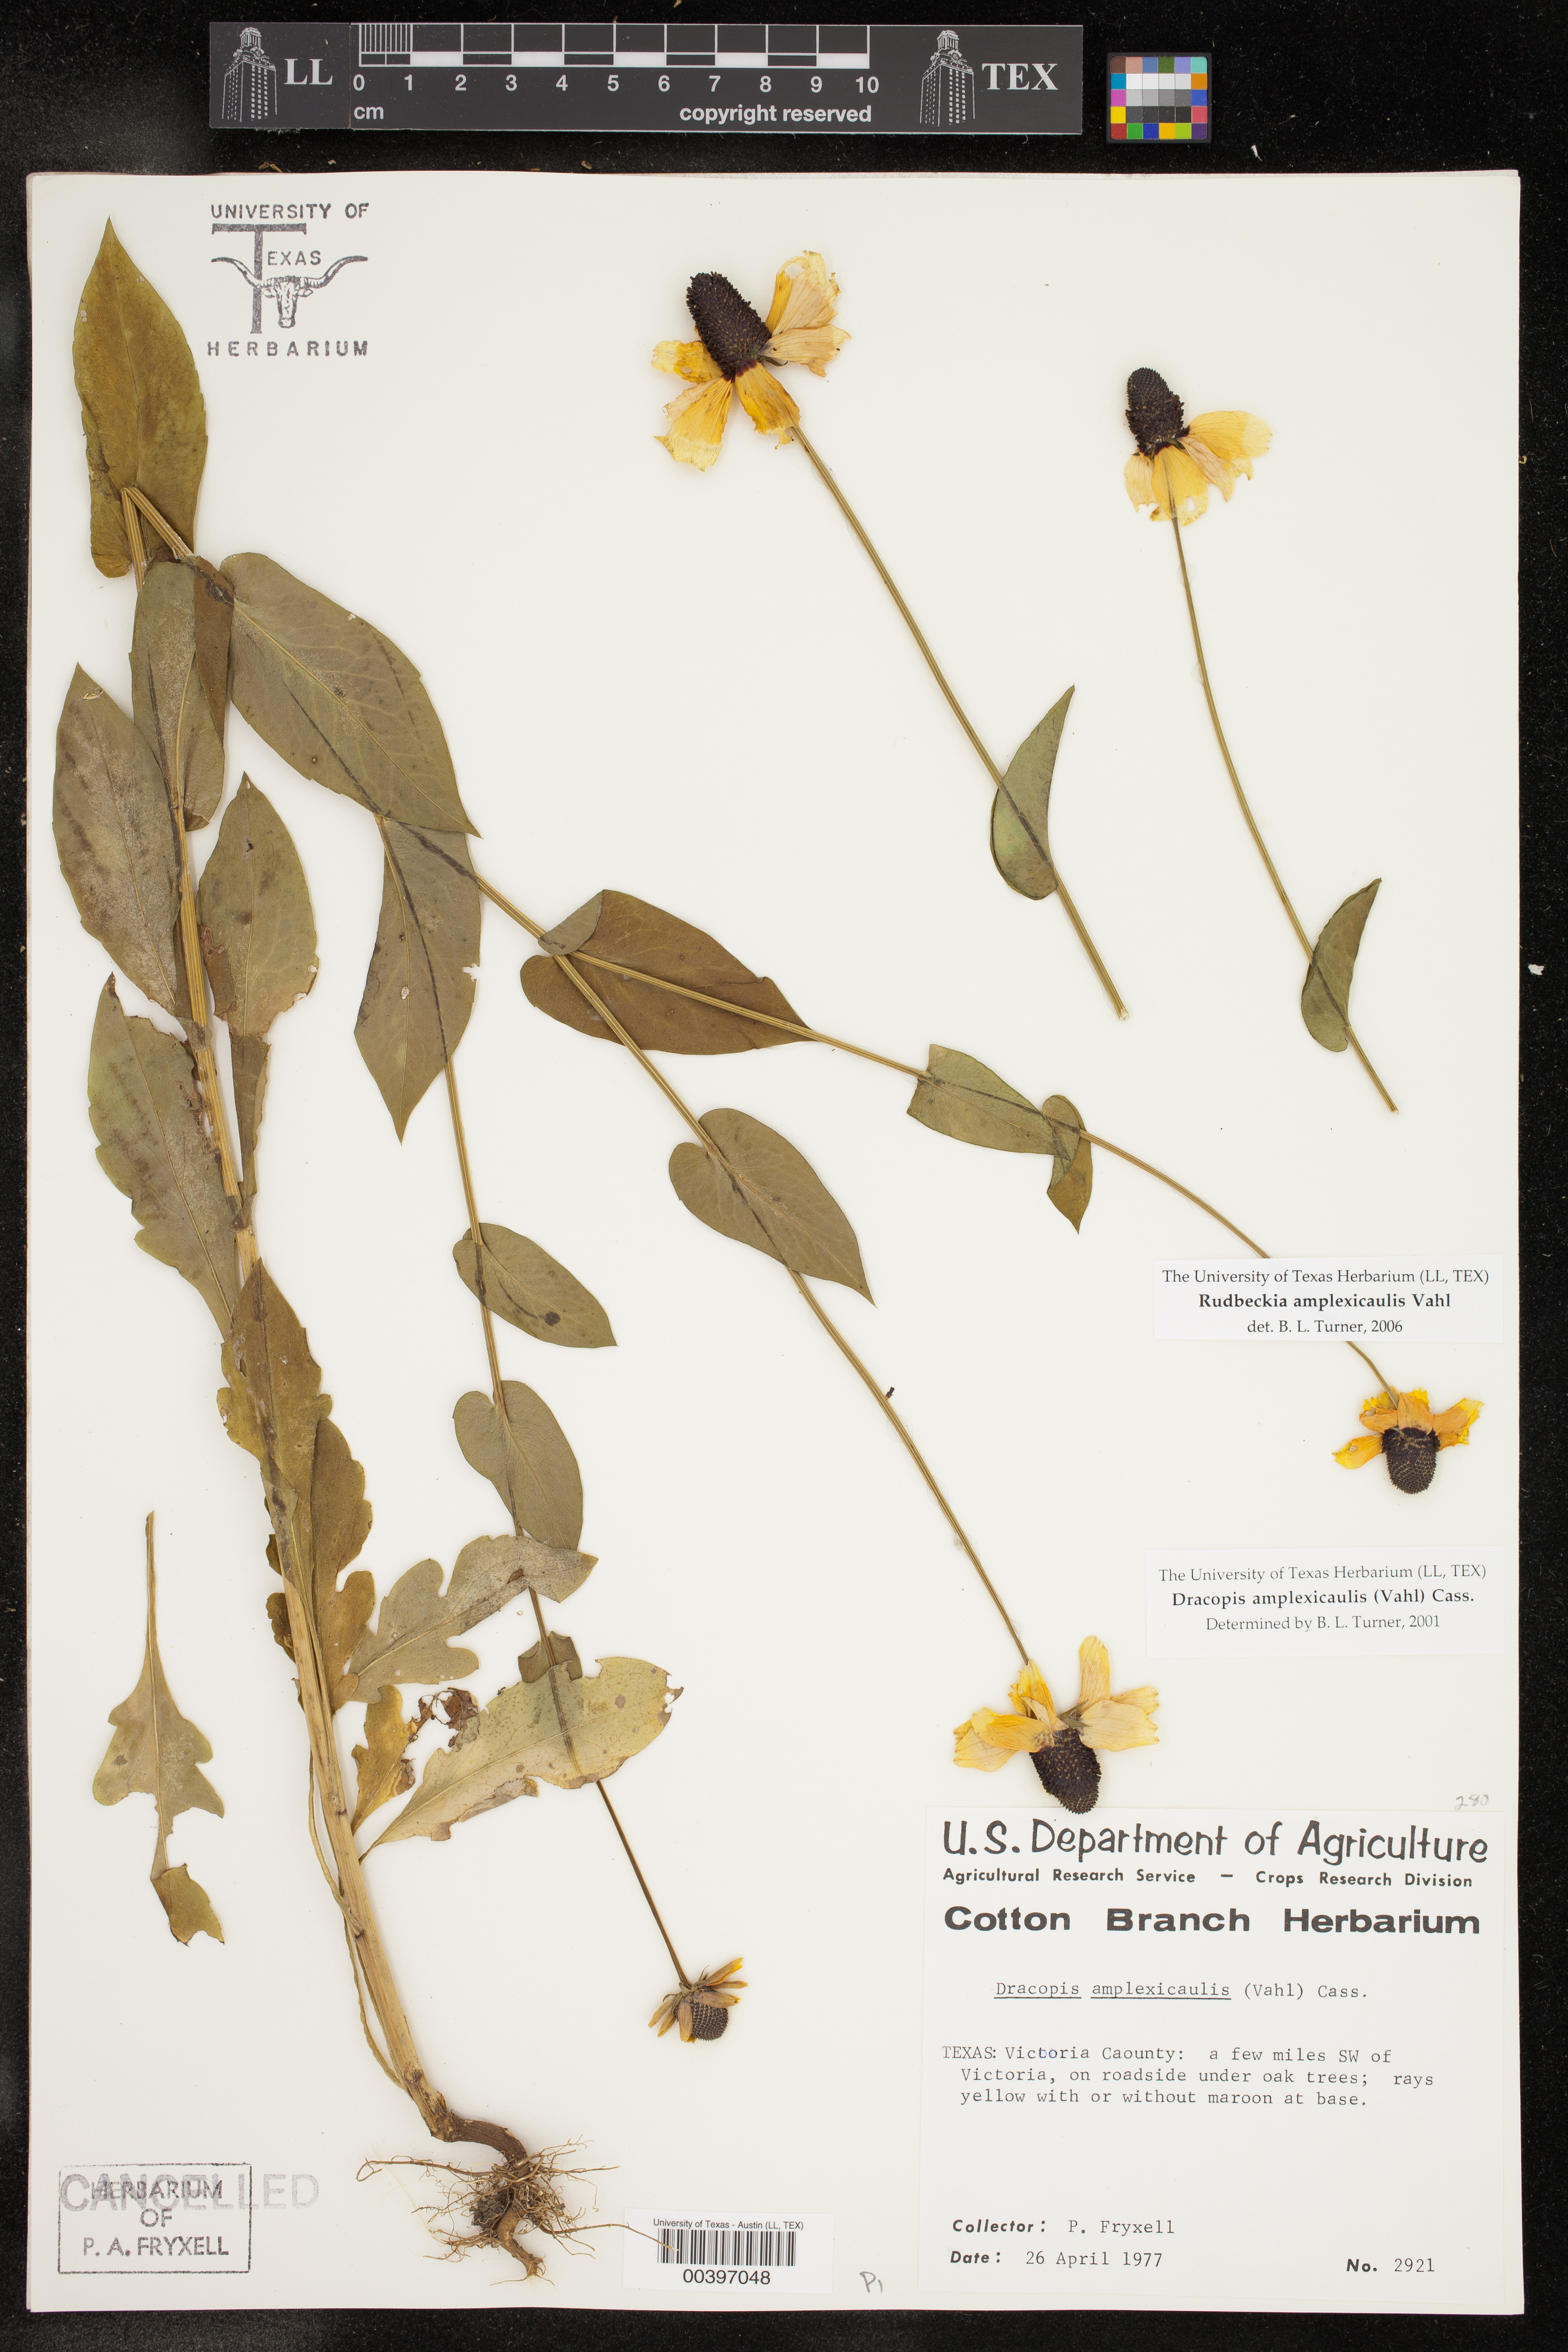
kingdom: Plantae
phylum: Tracheophyta
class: Magnoliopsida
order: Asterales
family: Asteraceae
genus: Rudbeckia
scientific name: Rudbeckia amplexicaulis
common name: Clasping-leaf coneflower
